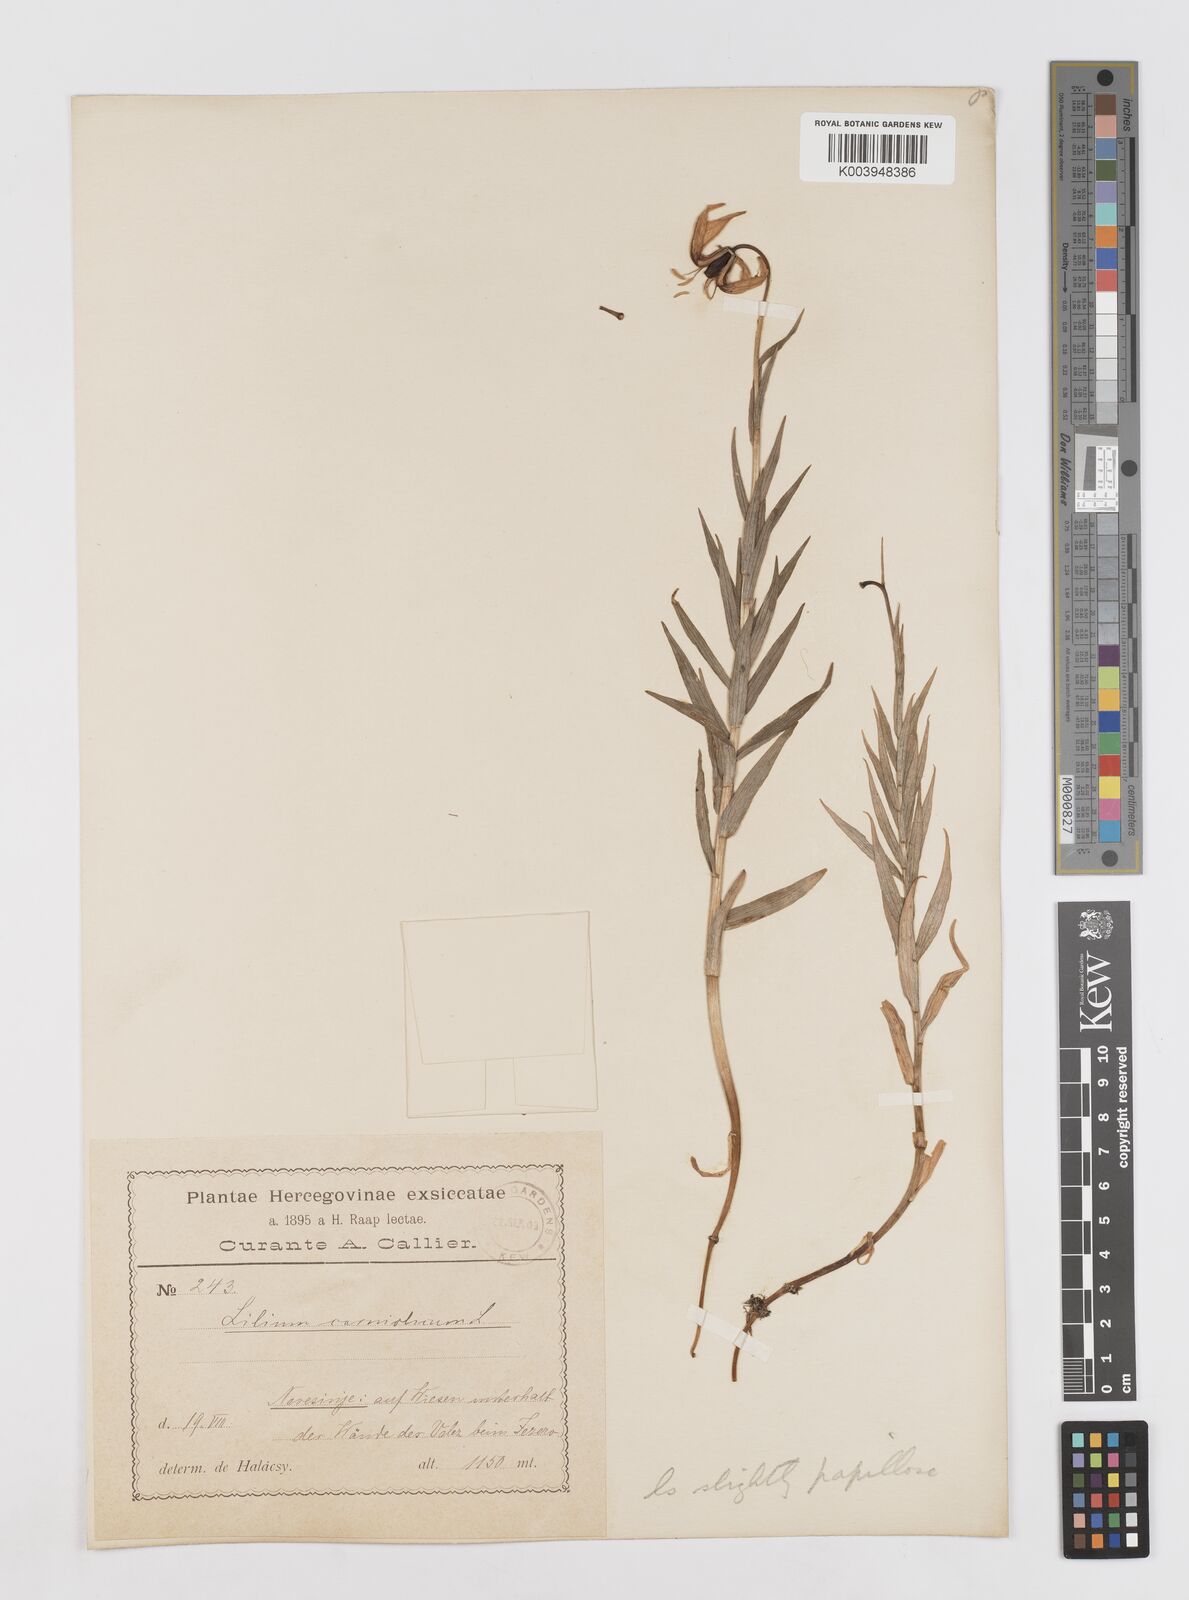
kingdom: Plantae
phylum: Tracheophyta
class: Liliopsida
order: Liliales
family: Liliaceae
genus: Lilium
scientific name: Lilium
